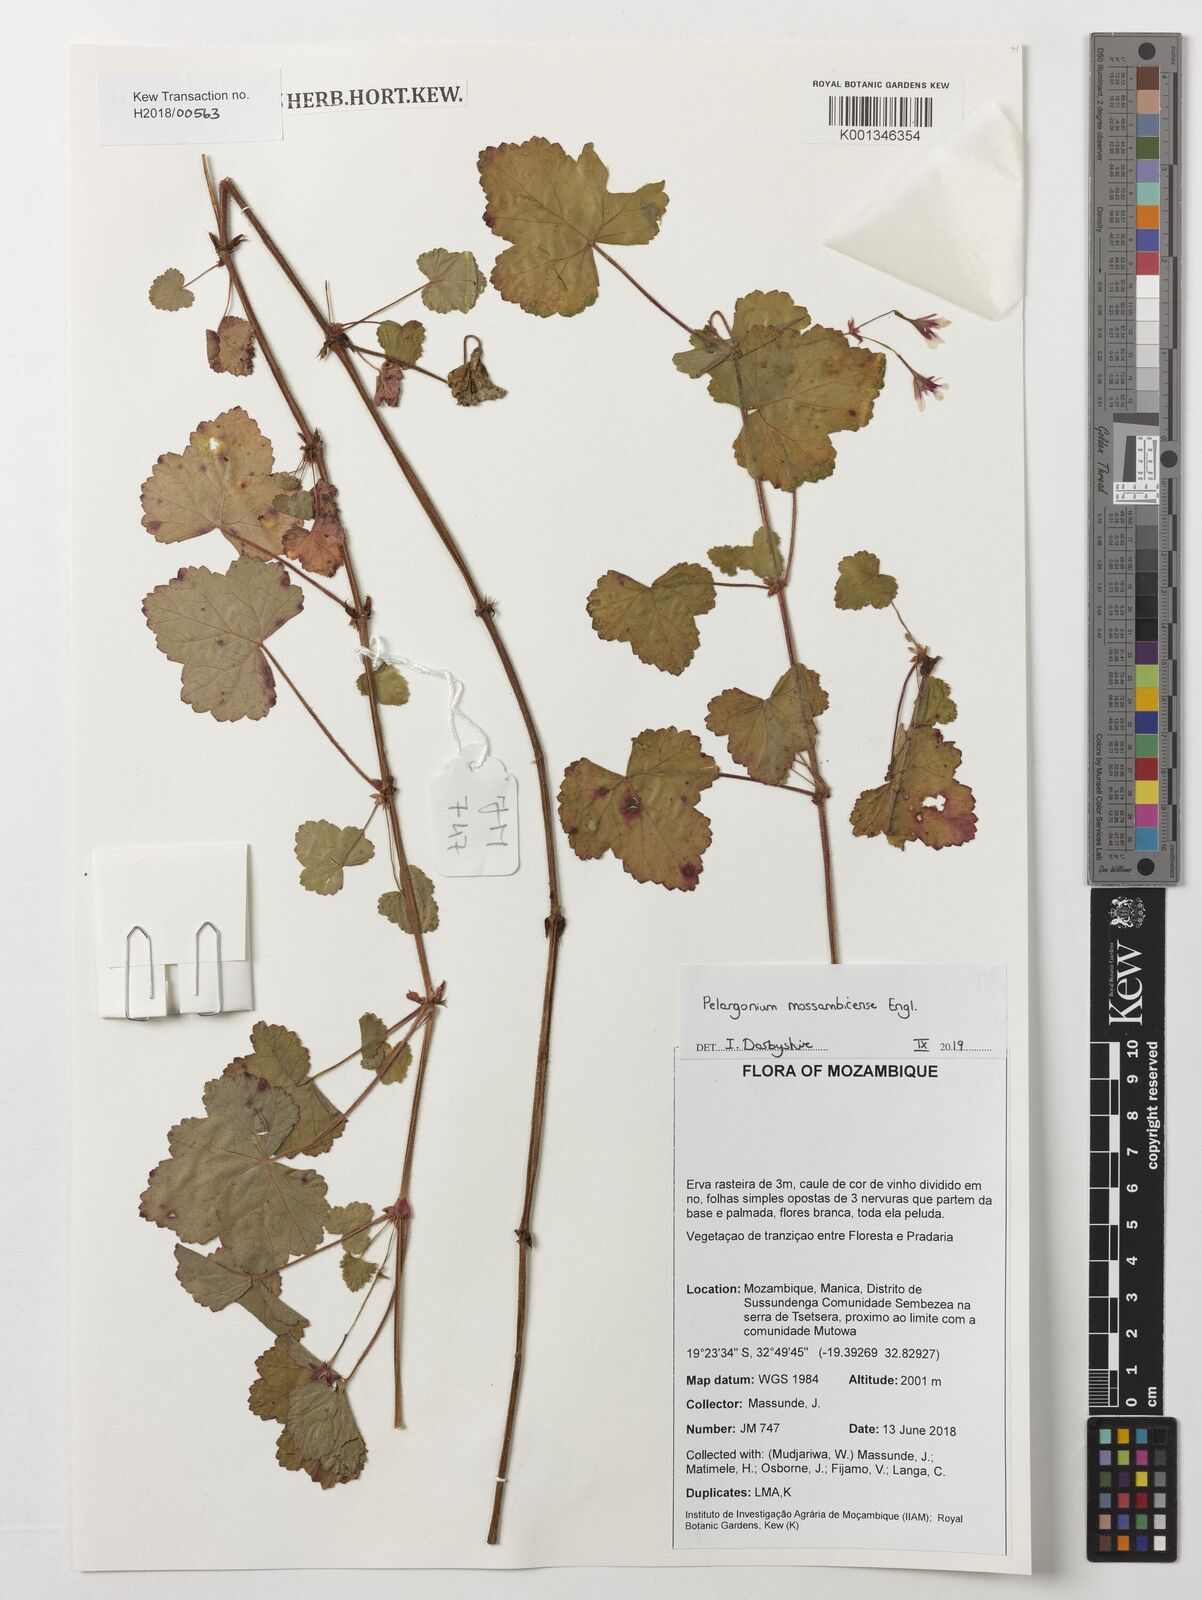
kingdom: Plantae
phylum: Tracheophyta
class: Magnoliopsida
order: Geraniales
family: Geraniaceae
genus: Pelargonium
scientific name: Pelargonium mossambicense
